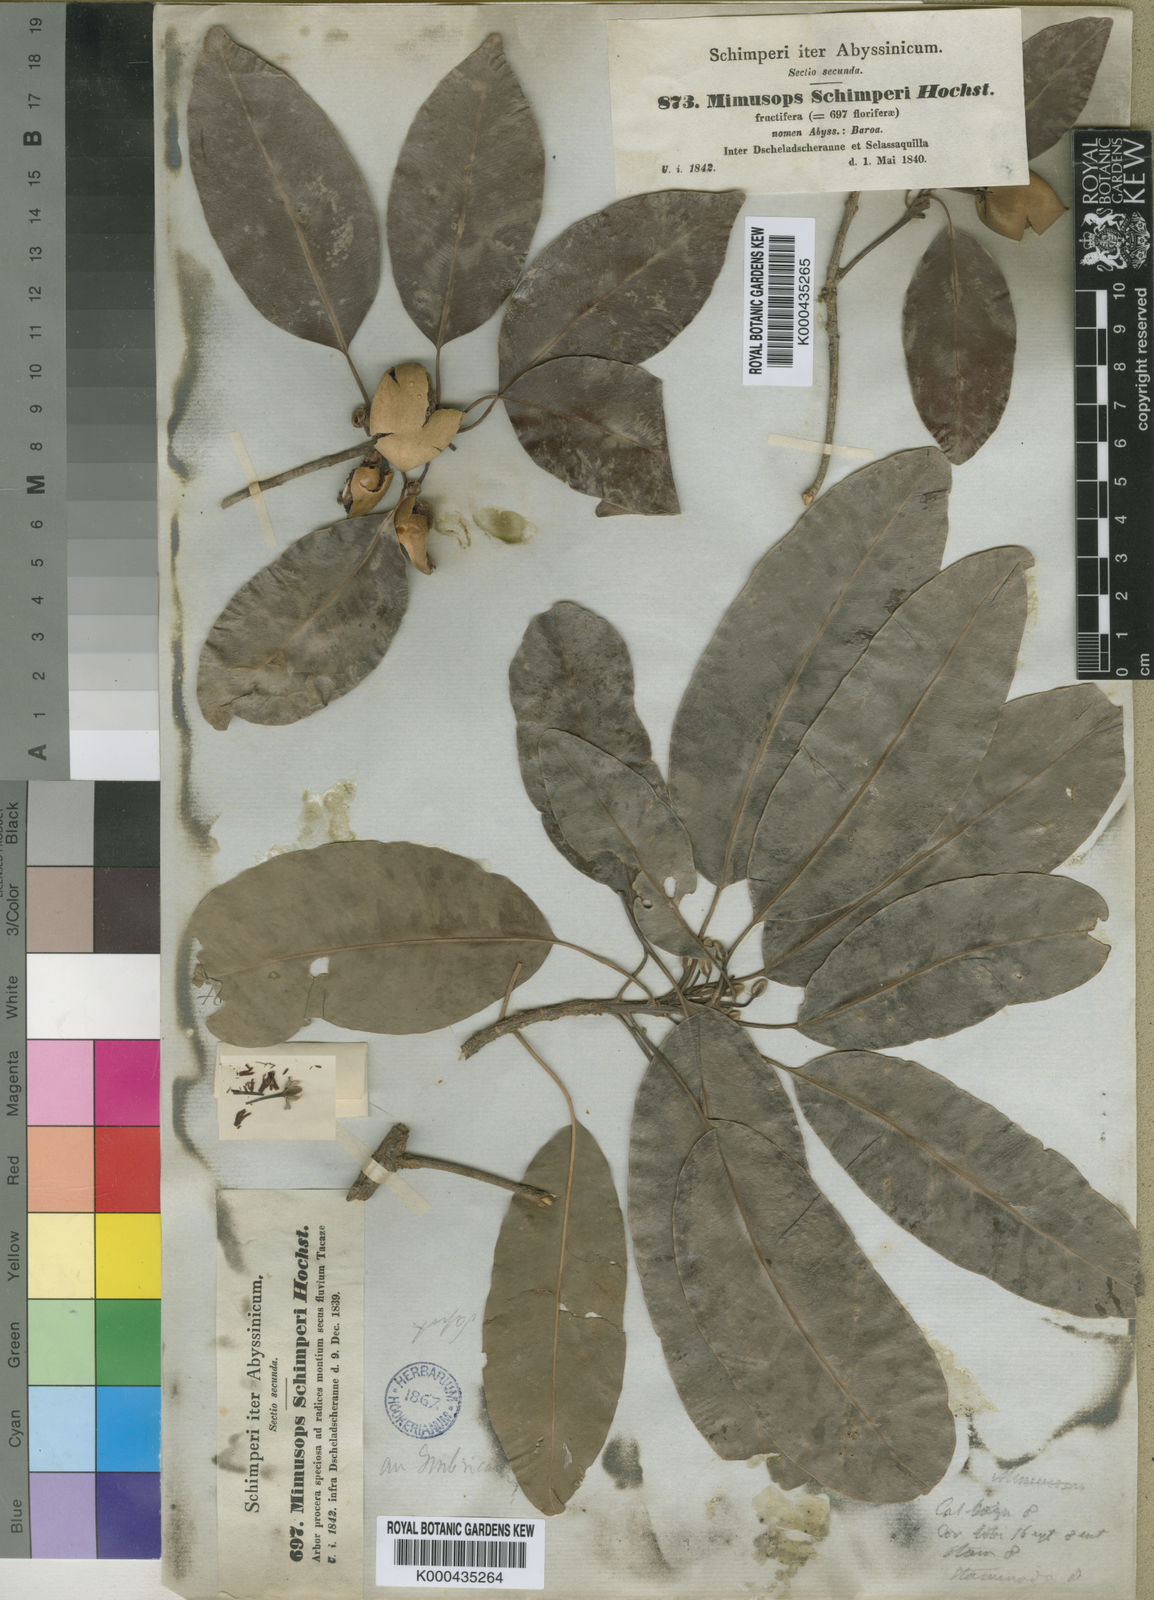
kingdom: Plantae
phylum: Tracheophyta
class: Magnoliopsida
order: Ericales
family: Sapotaceae
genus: Mimusops
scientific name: Mimusops laurifolia
